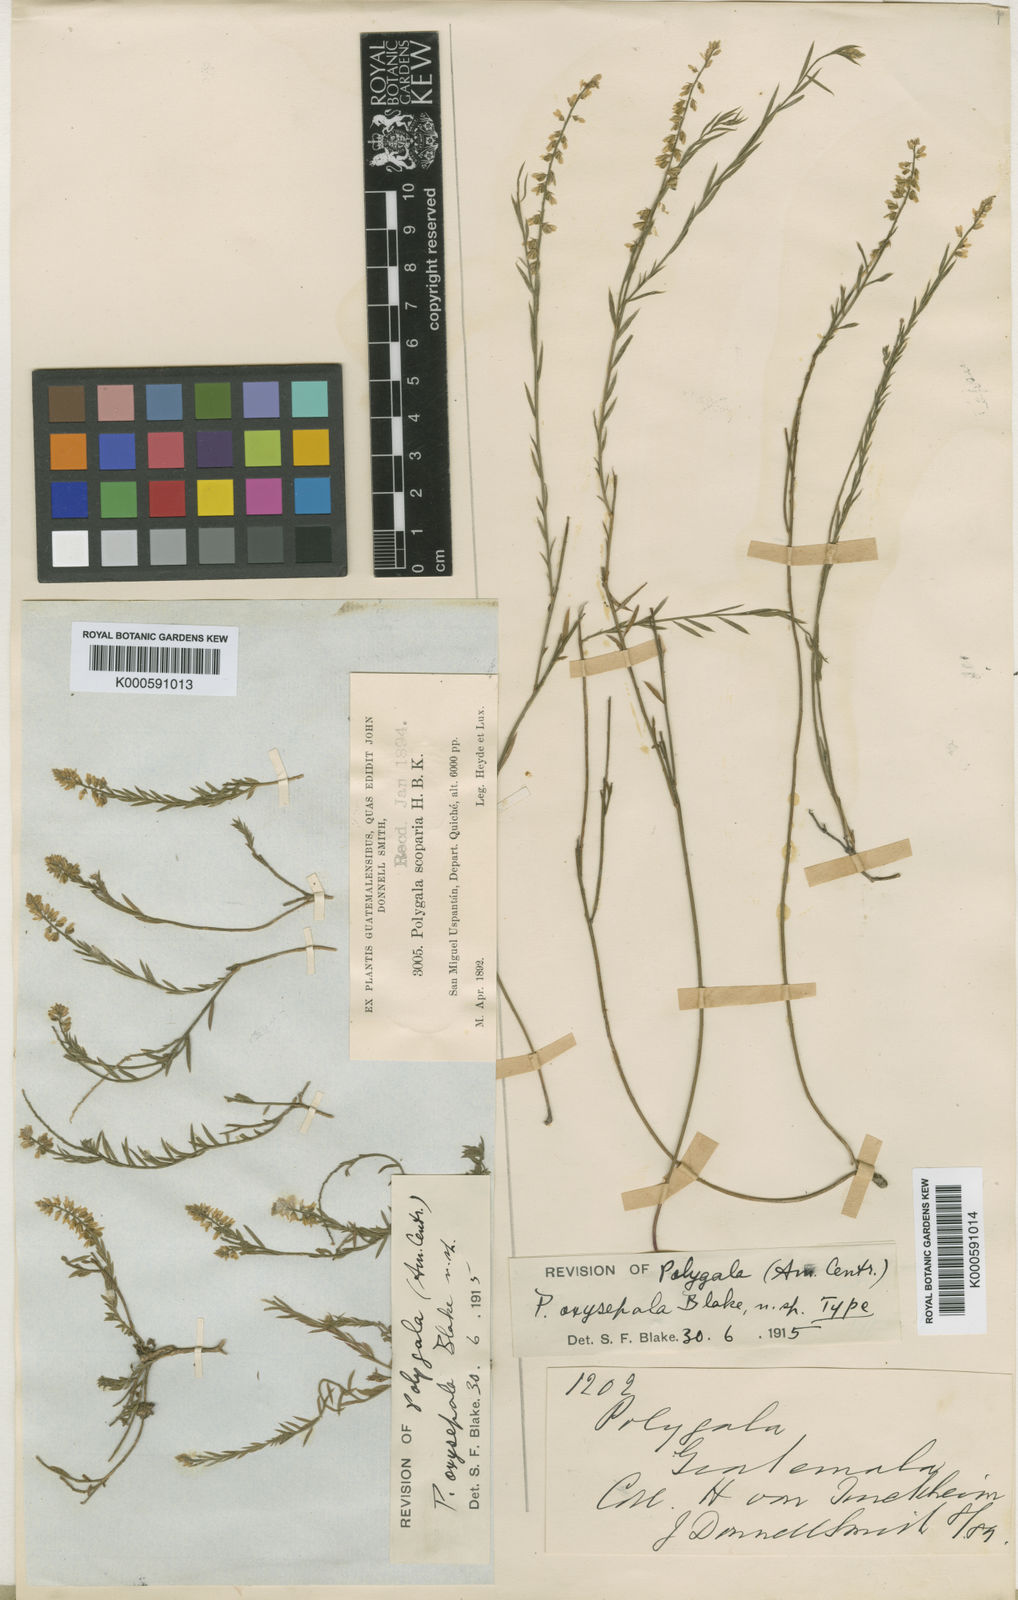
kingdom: Plantae
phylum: Tracheophyta
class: Magnoliopsida
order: Fabales
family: Polygalaceae
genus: Polygala
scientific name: Polygala salviniana
